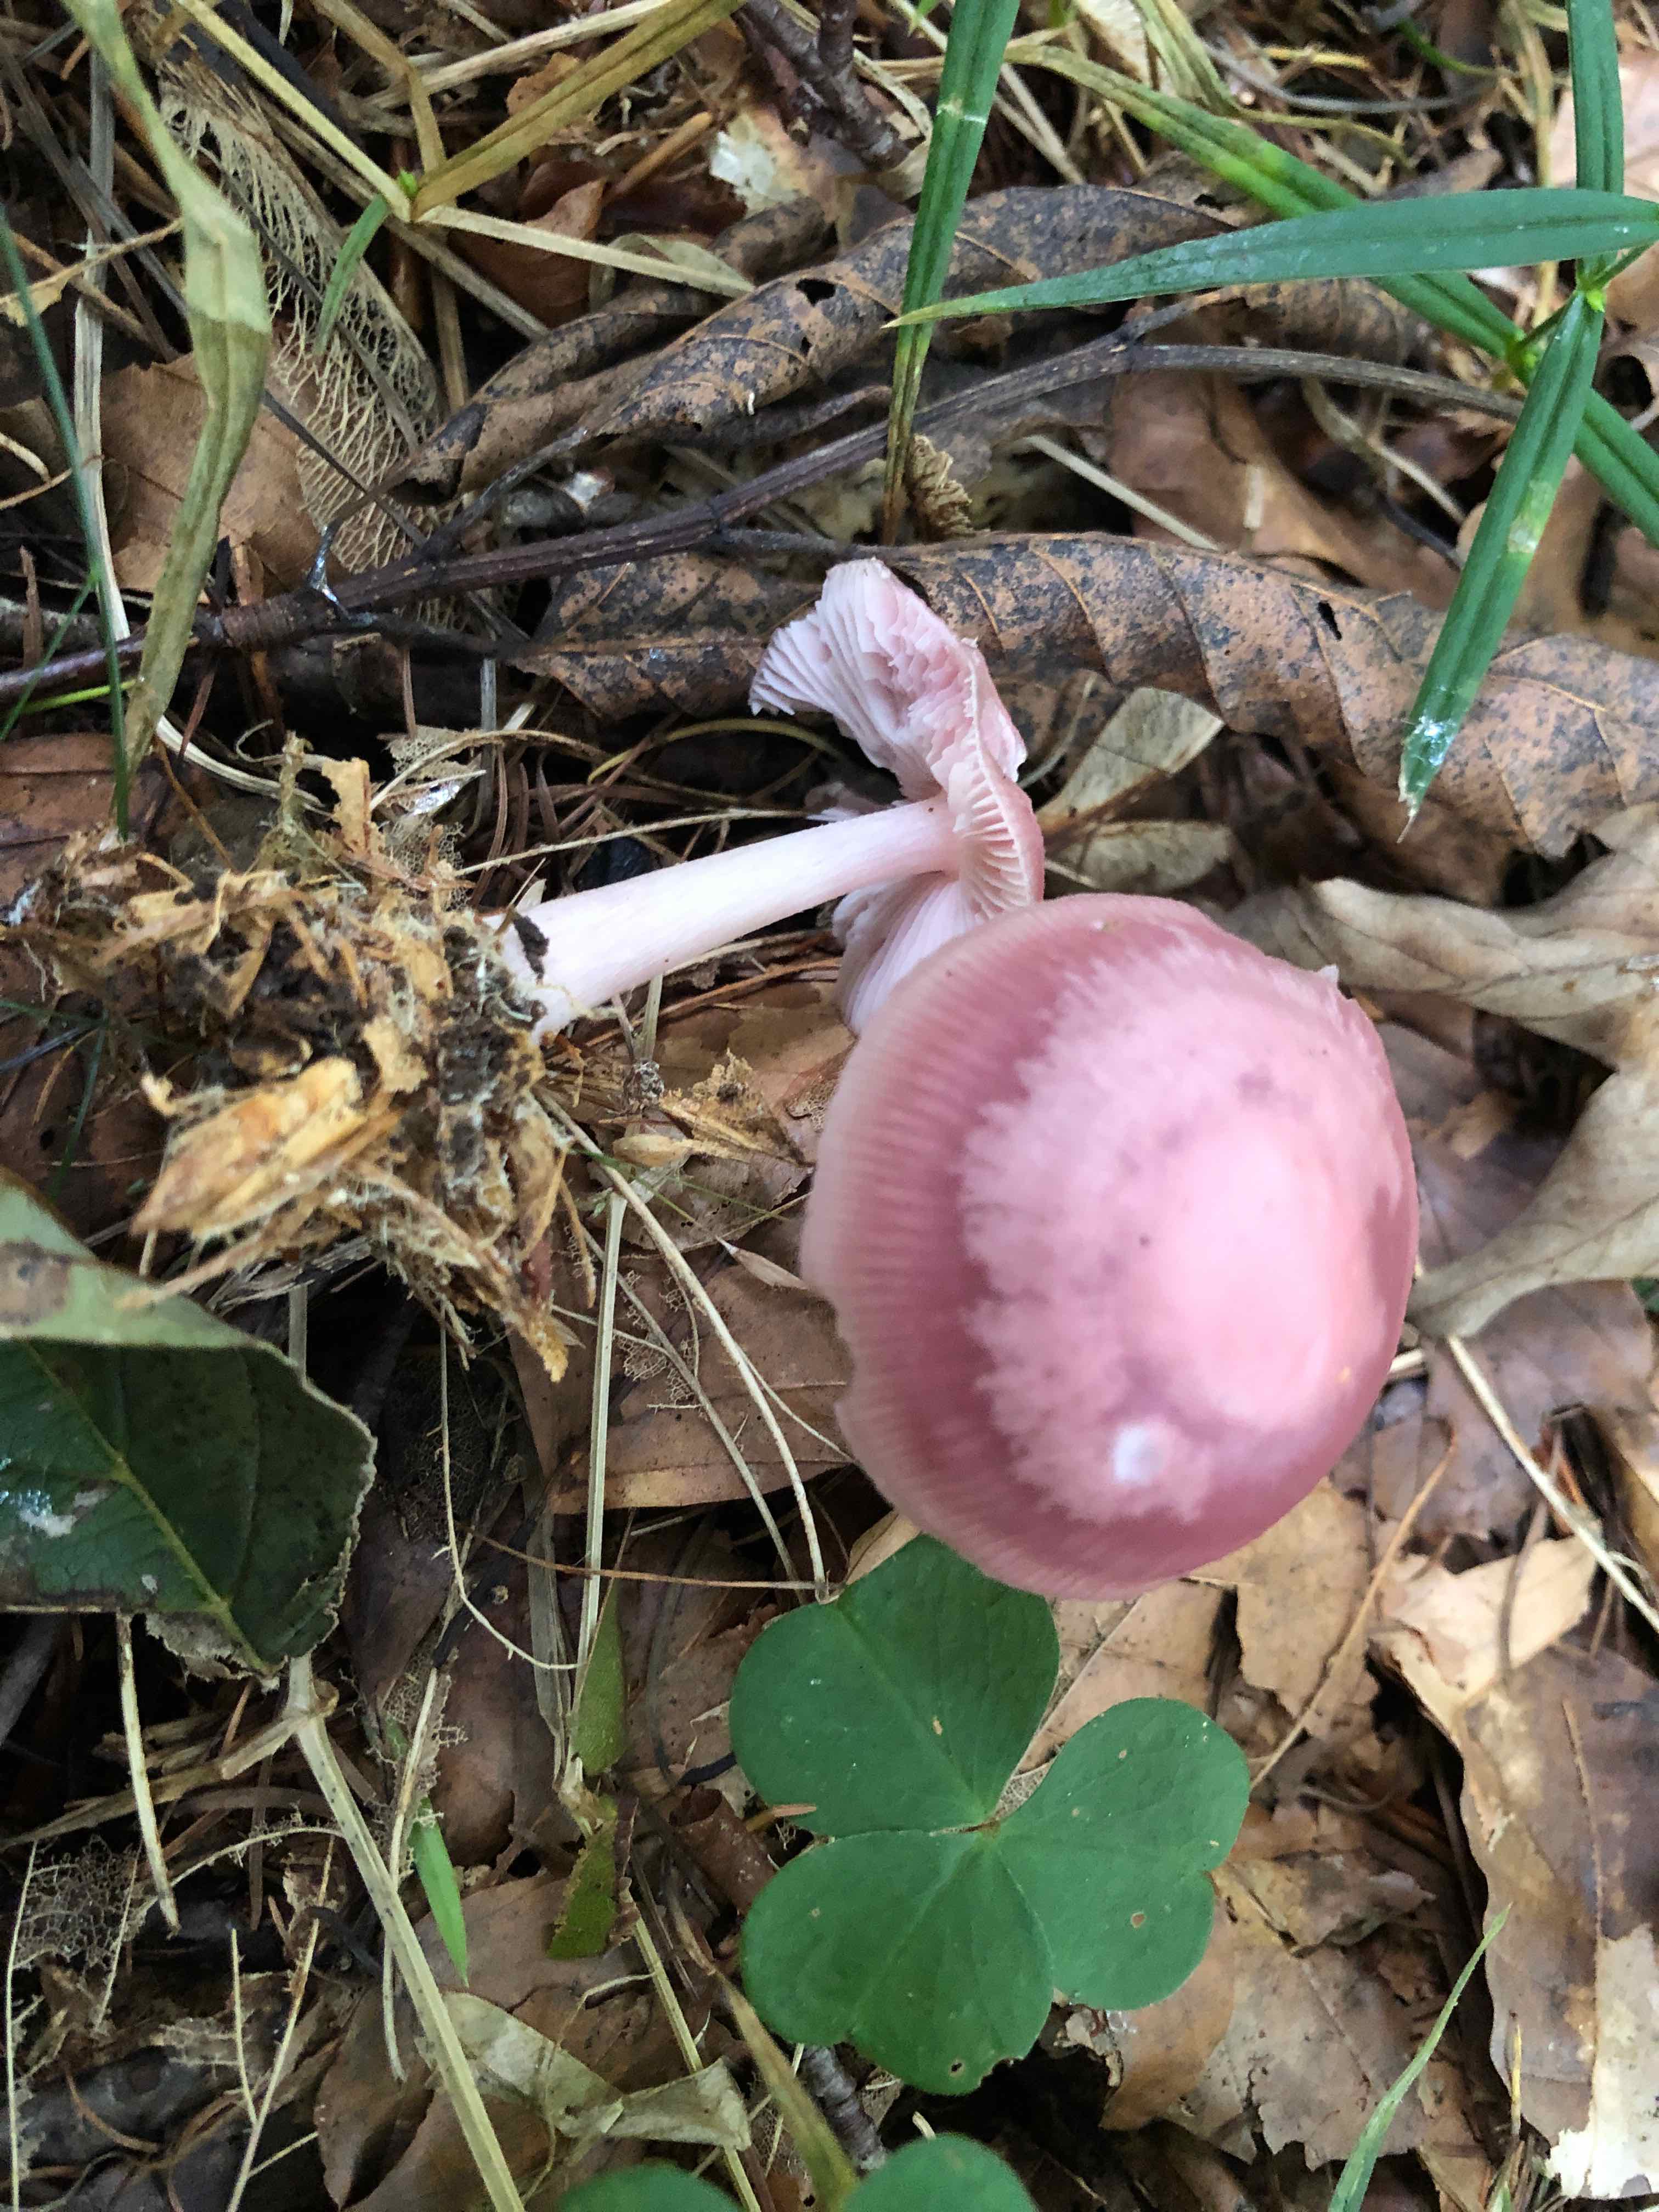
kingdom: Fungi
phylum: Basidiomycota
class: Agaricomycetes
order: Agaricales
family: Mycenaceae
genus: Mycena
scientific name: Mycena rosea
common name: rosa huesvamp
